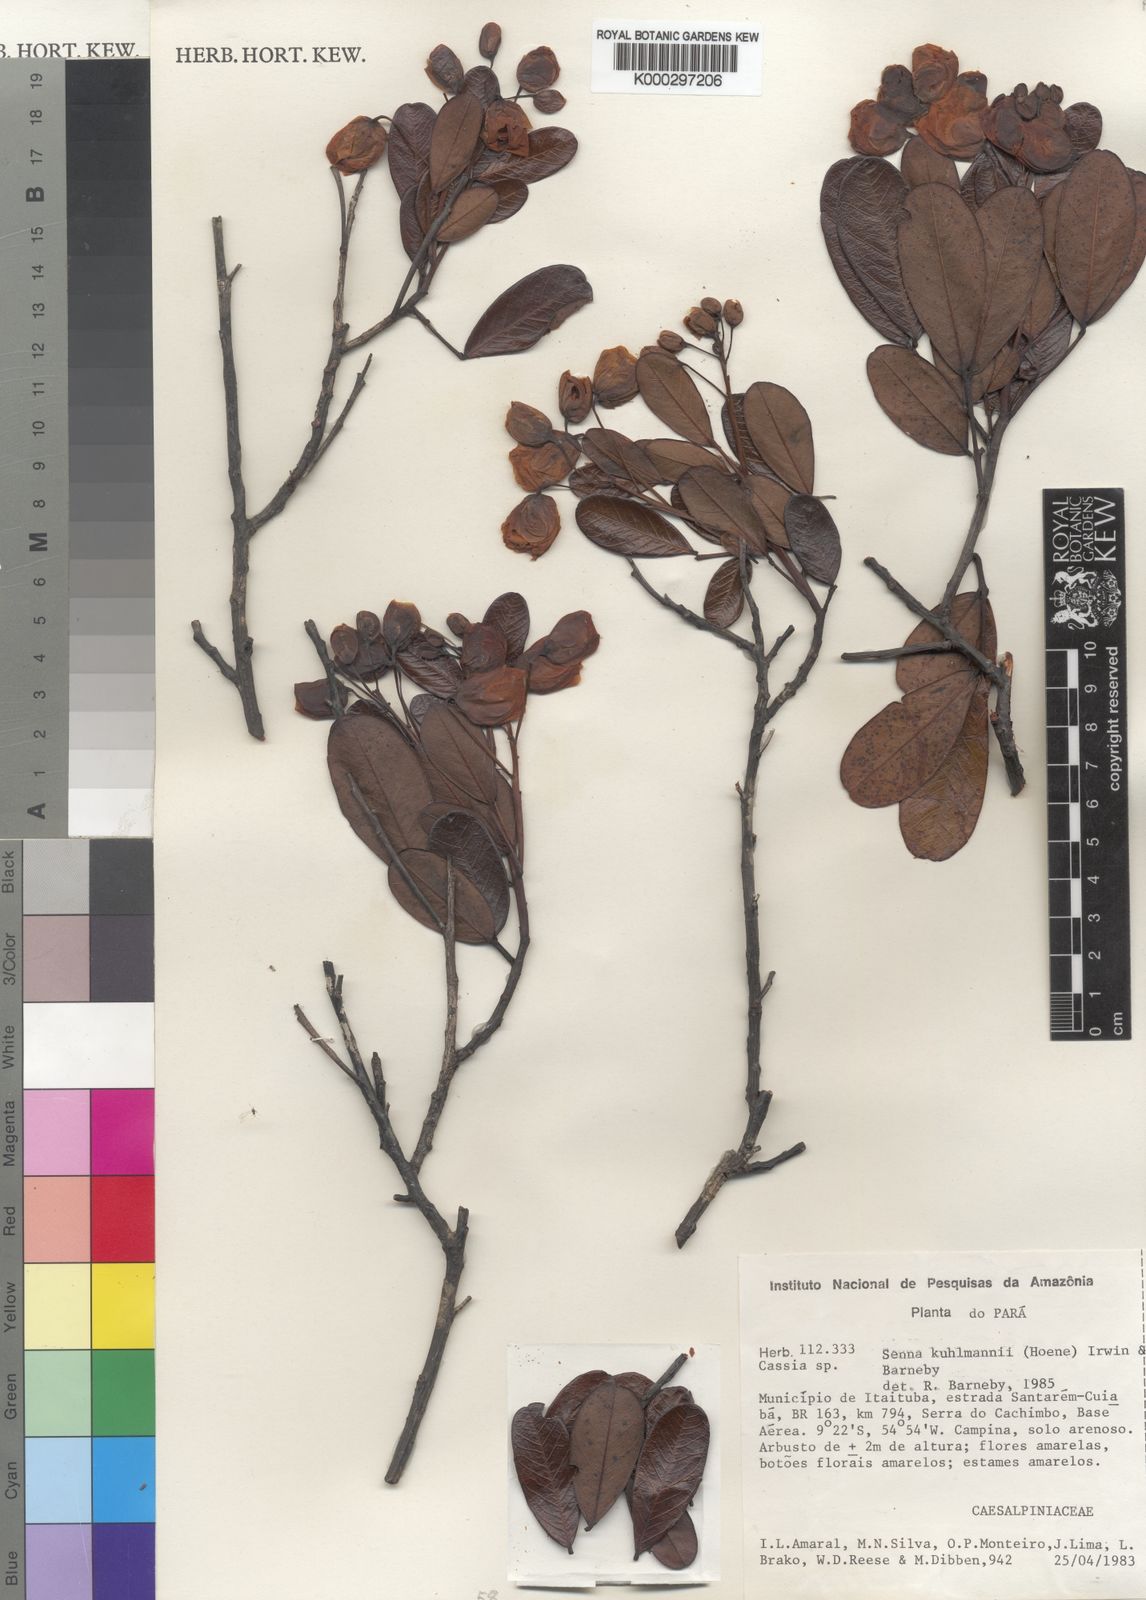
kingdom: Plantae
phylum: Tracheophyta
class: Magnoliopsida
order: Fabales
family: Fabaceae
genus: Senna
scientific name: Senna
